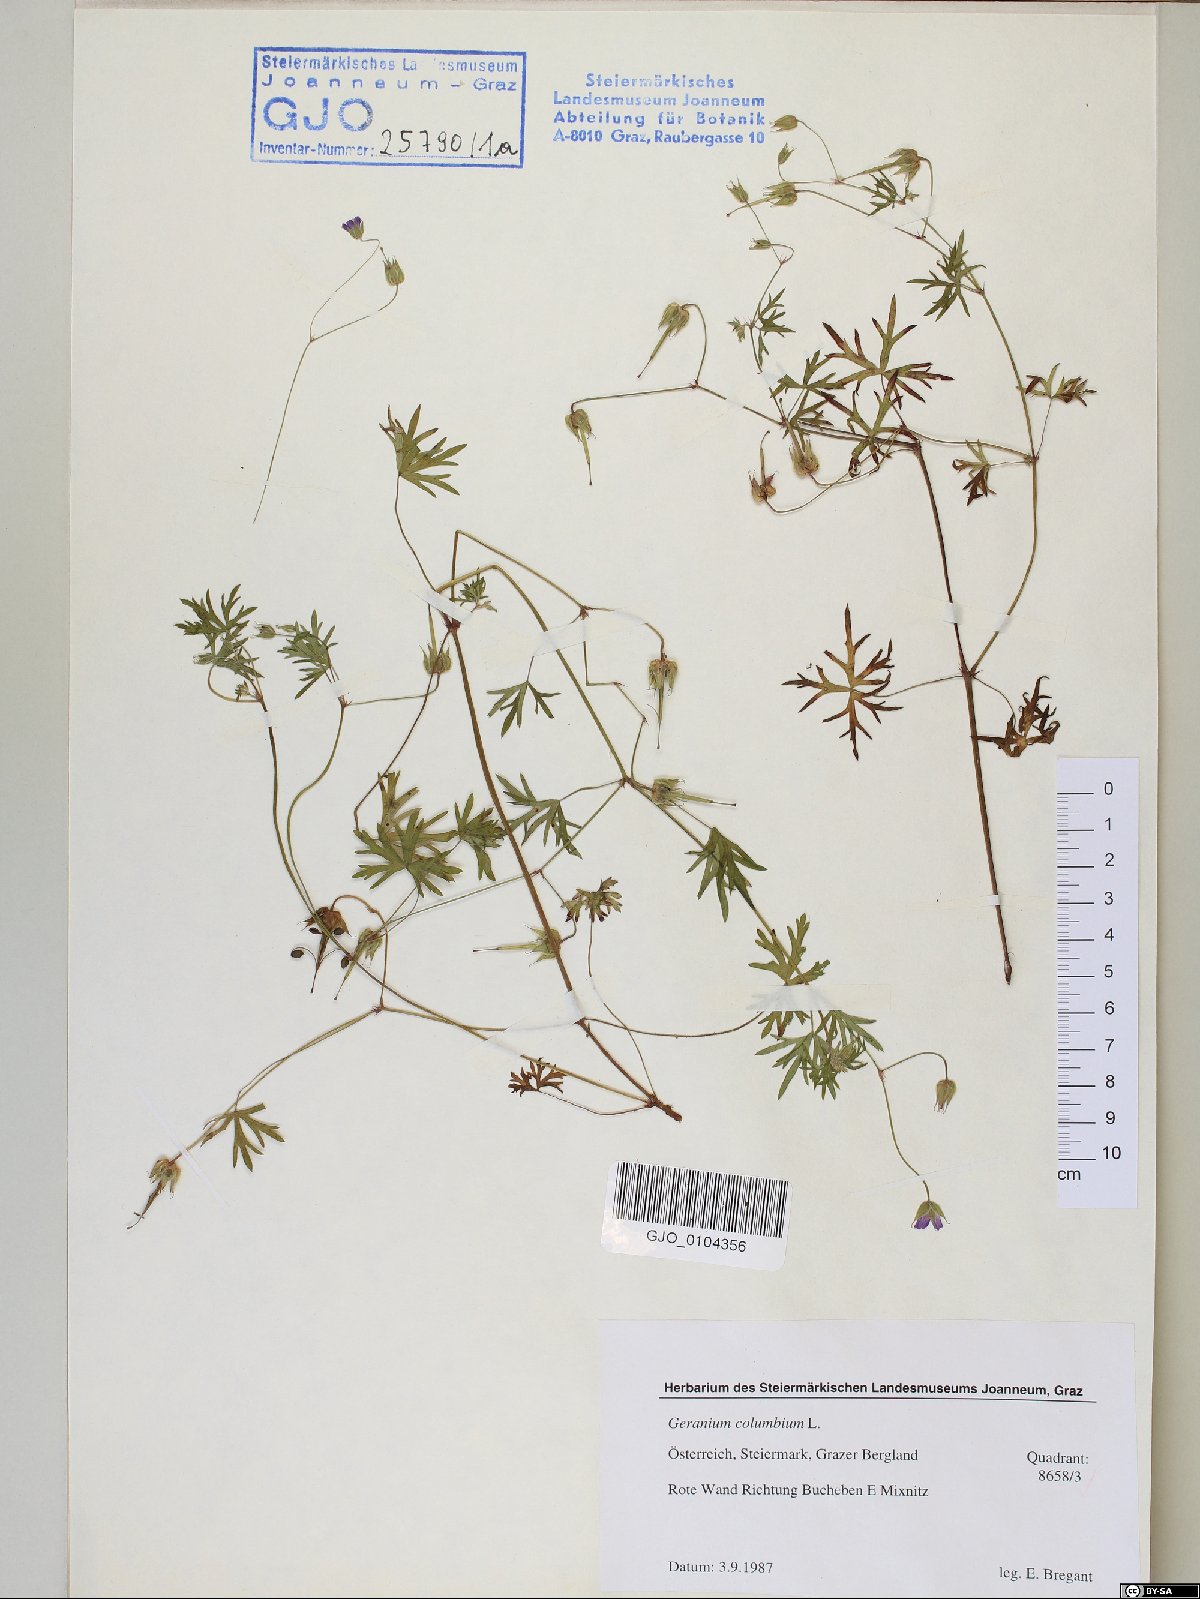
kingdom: Plantae
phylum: Tracheophyta
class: Magnoliopsida
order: Geraniales
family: Geraniaceae
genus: Geranium
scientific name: Geranium columbinum
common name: Long-stalked crane's-bill
